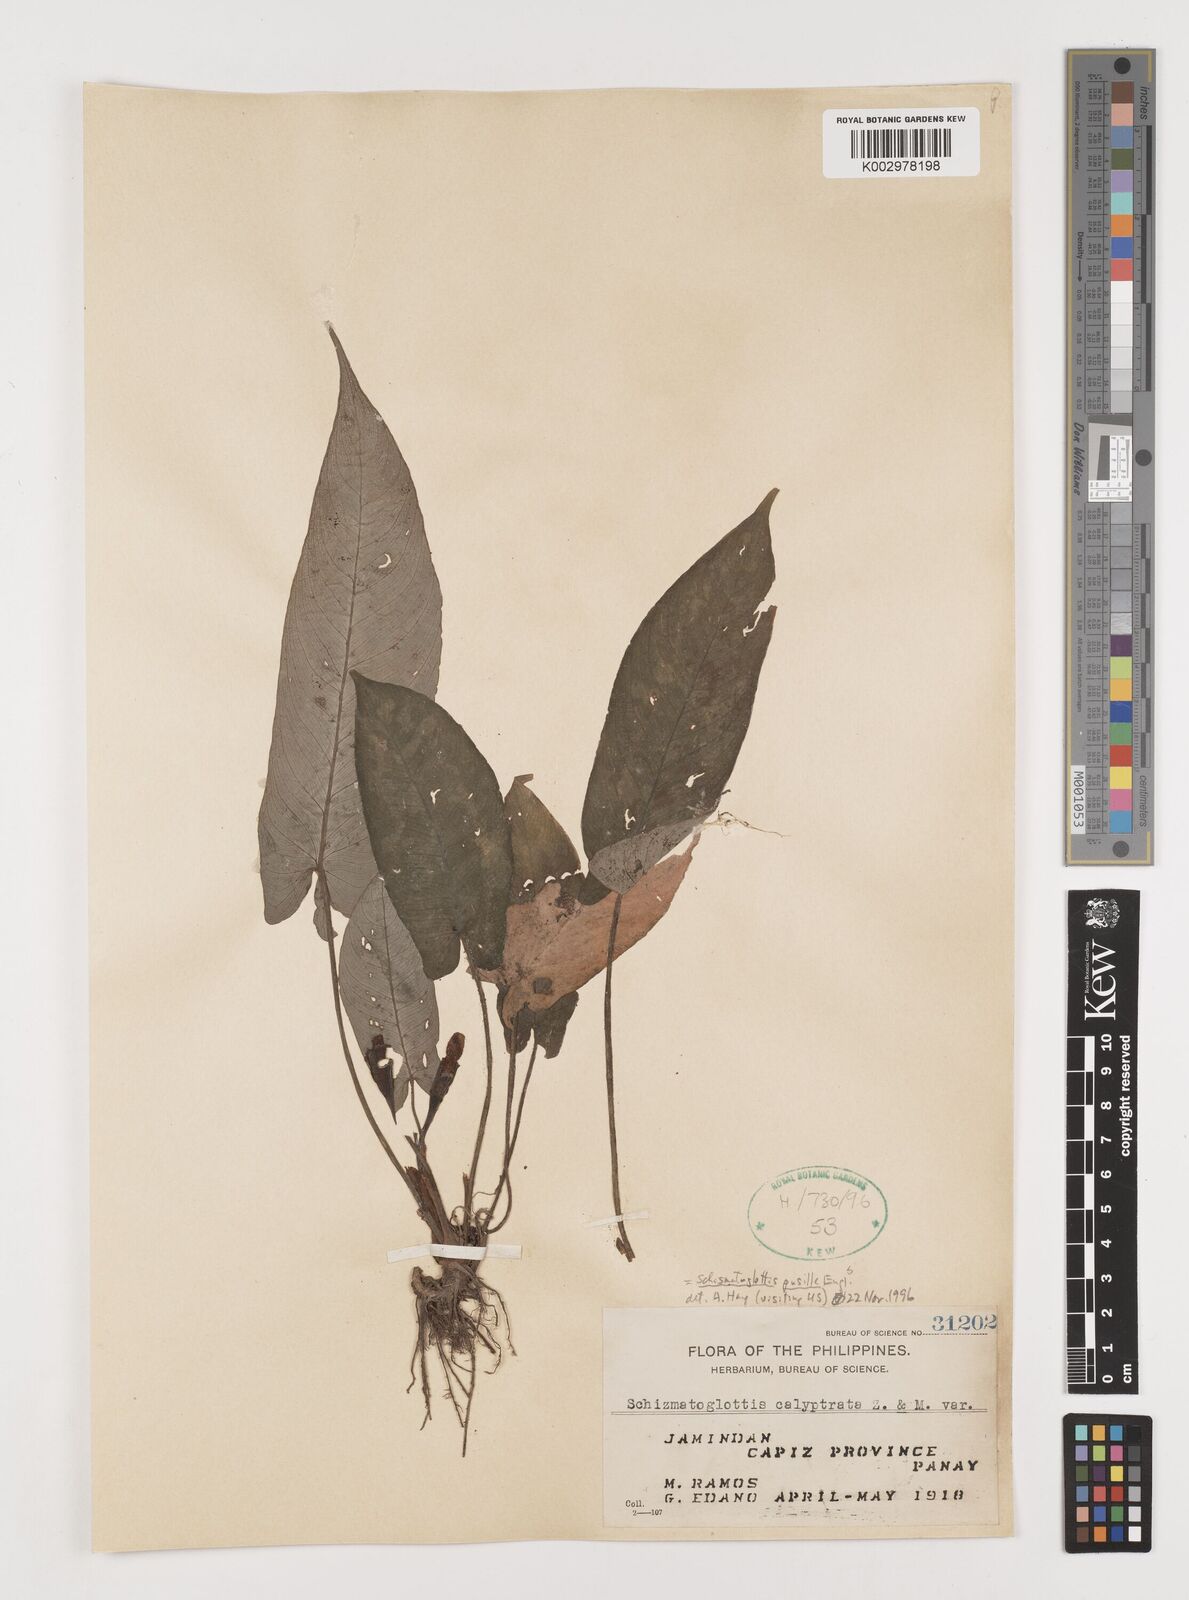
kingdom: Plantae
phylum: Tracheophyta
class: Liliopsida
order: Alismatales
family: Araceae
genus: Schismatoglottis
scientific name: Schismatoglottis pusilla
